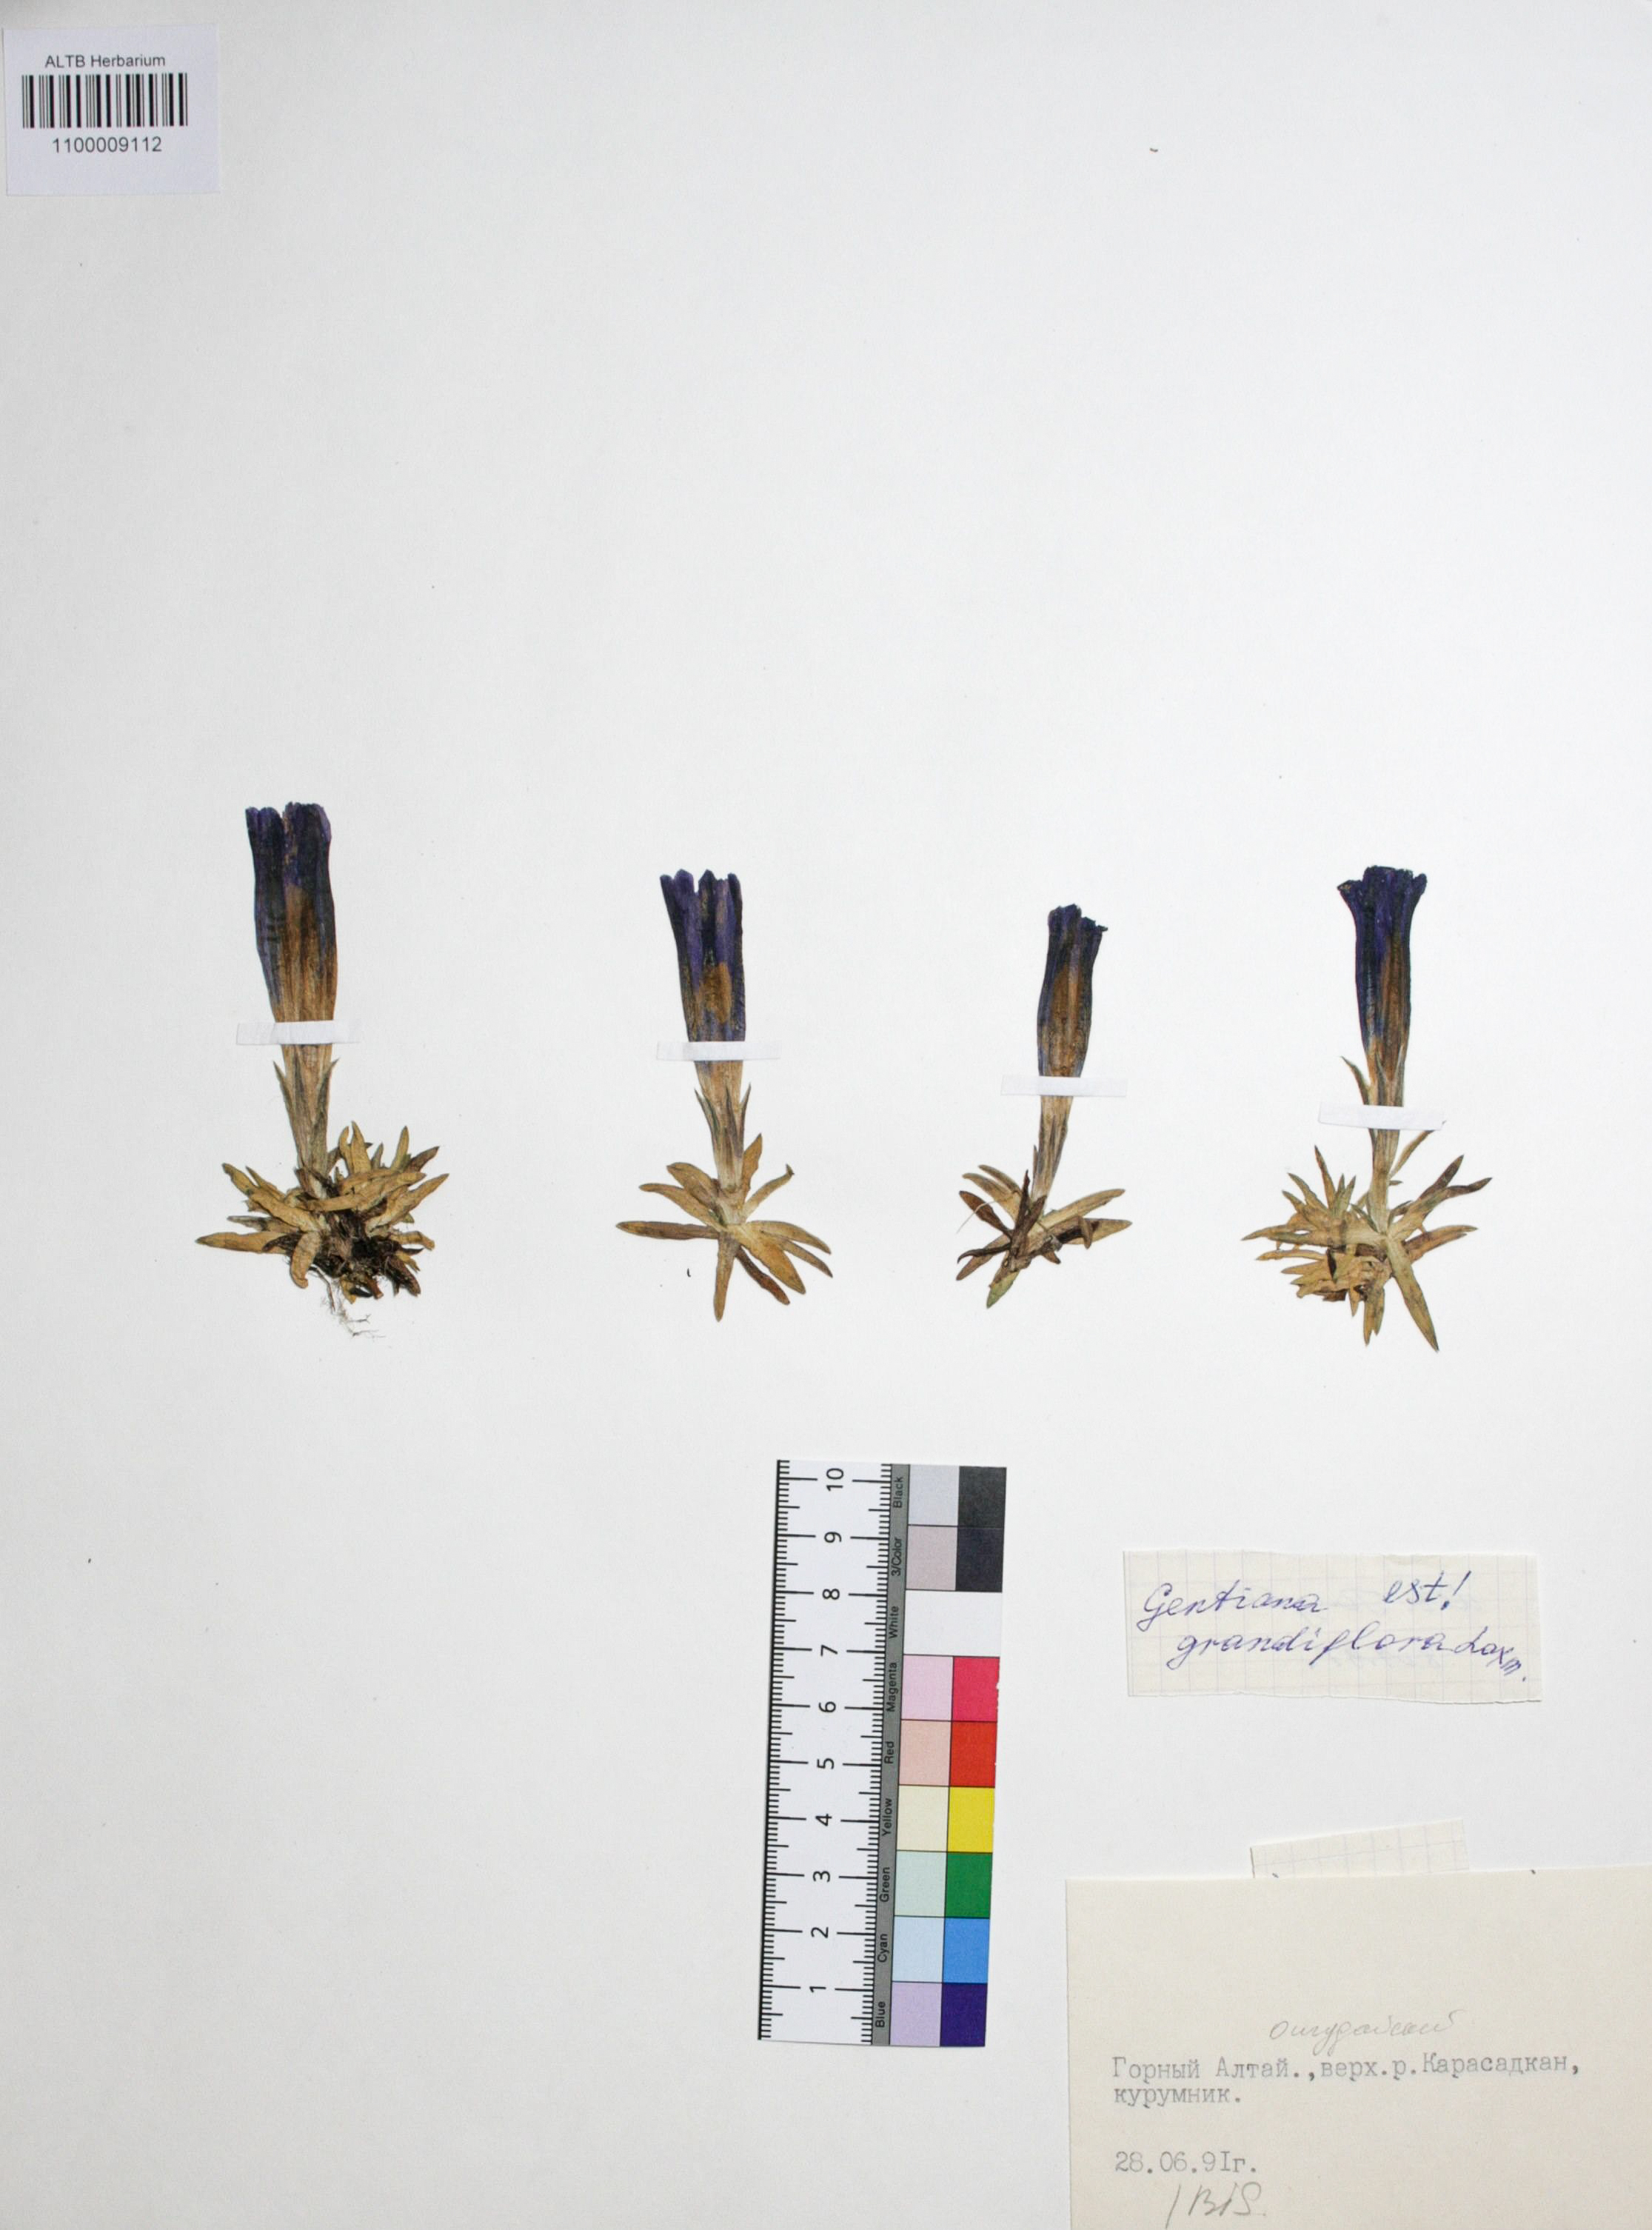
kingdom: Plantae
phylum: Tracheophyta
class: Magnoliopsida
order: Gentianales
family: Gentianaceae
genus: Gentiana
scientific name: Gentiana grandiflora
